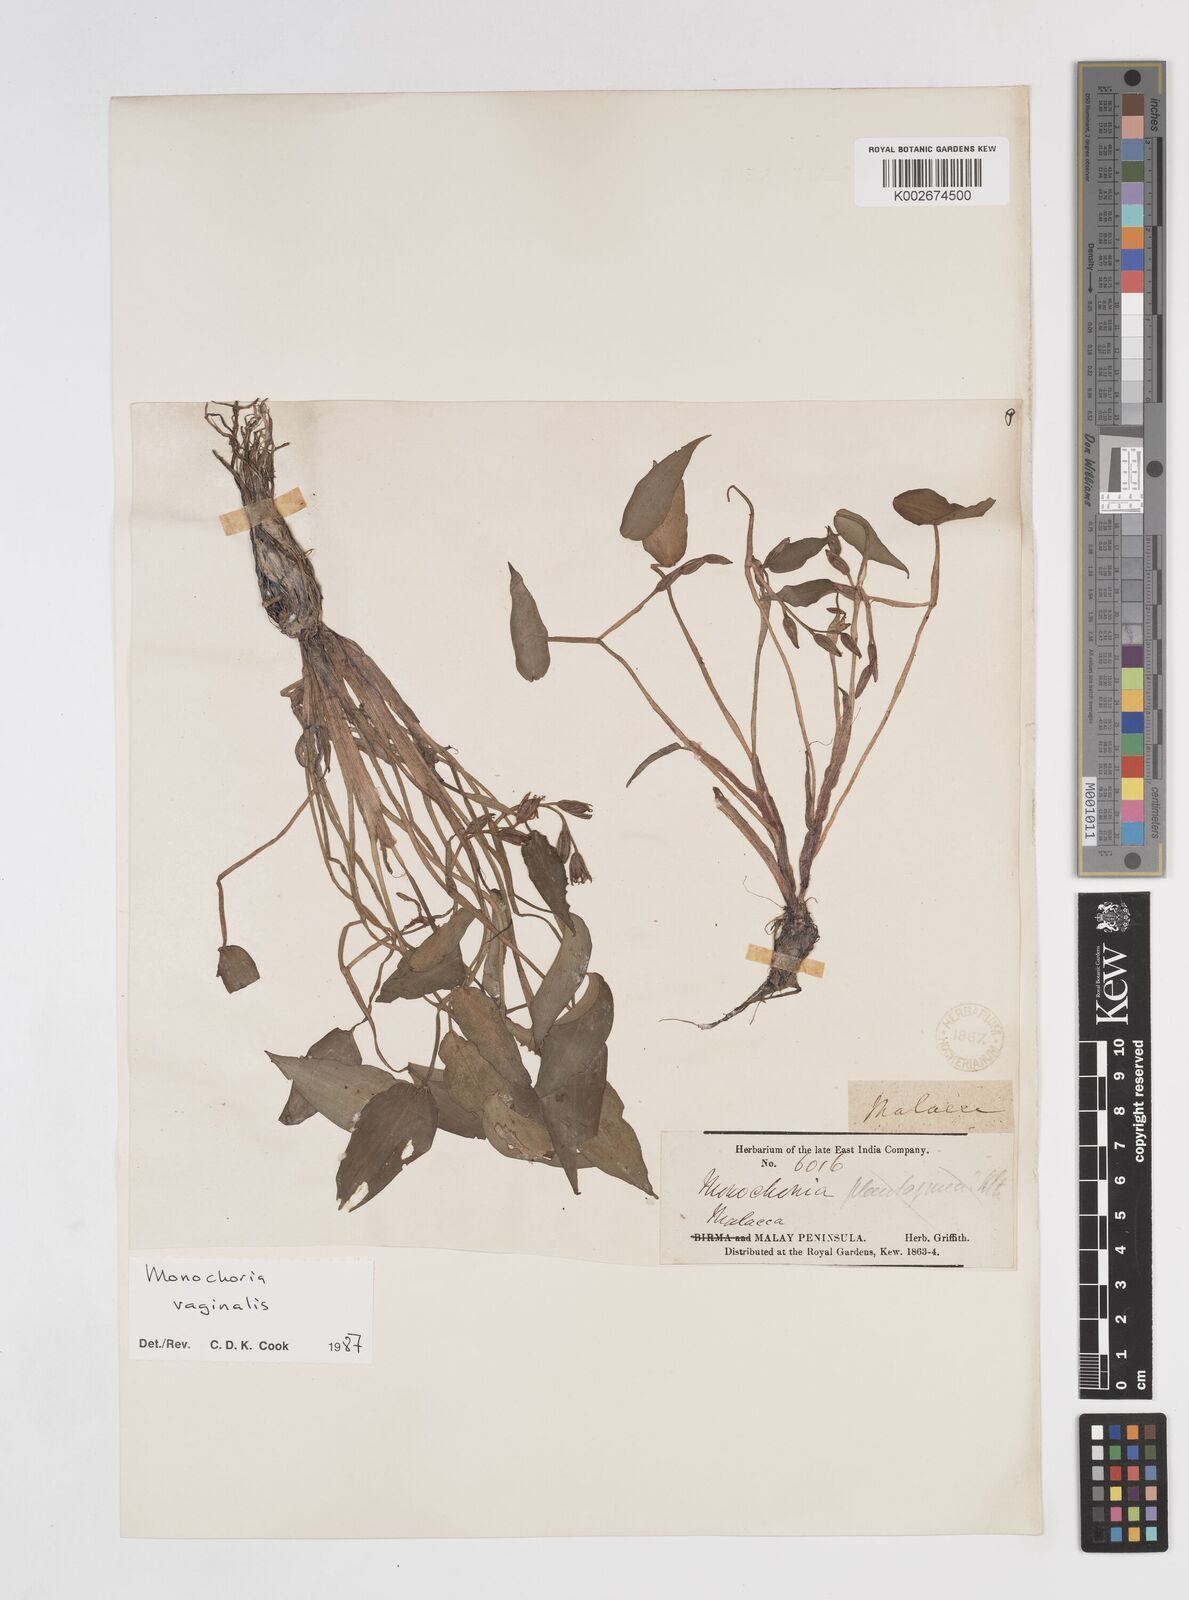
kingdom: Plantae
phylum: Tracheophyta
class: Liliopsida
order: Commelinales
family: Pontederiaceae
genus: Pontederia
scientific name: Pontederia vaginalis
